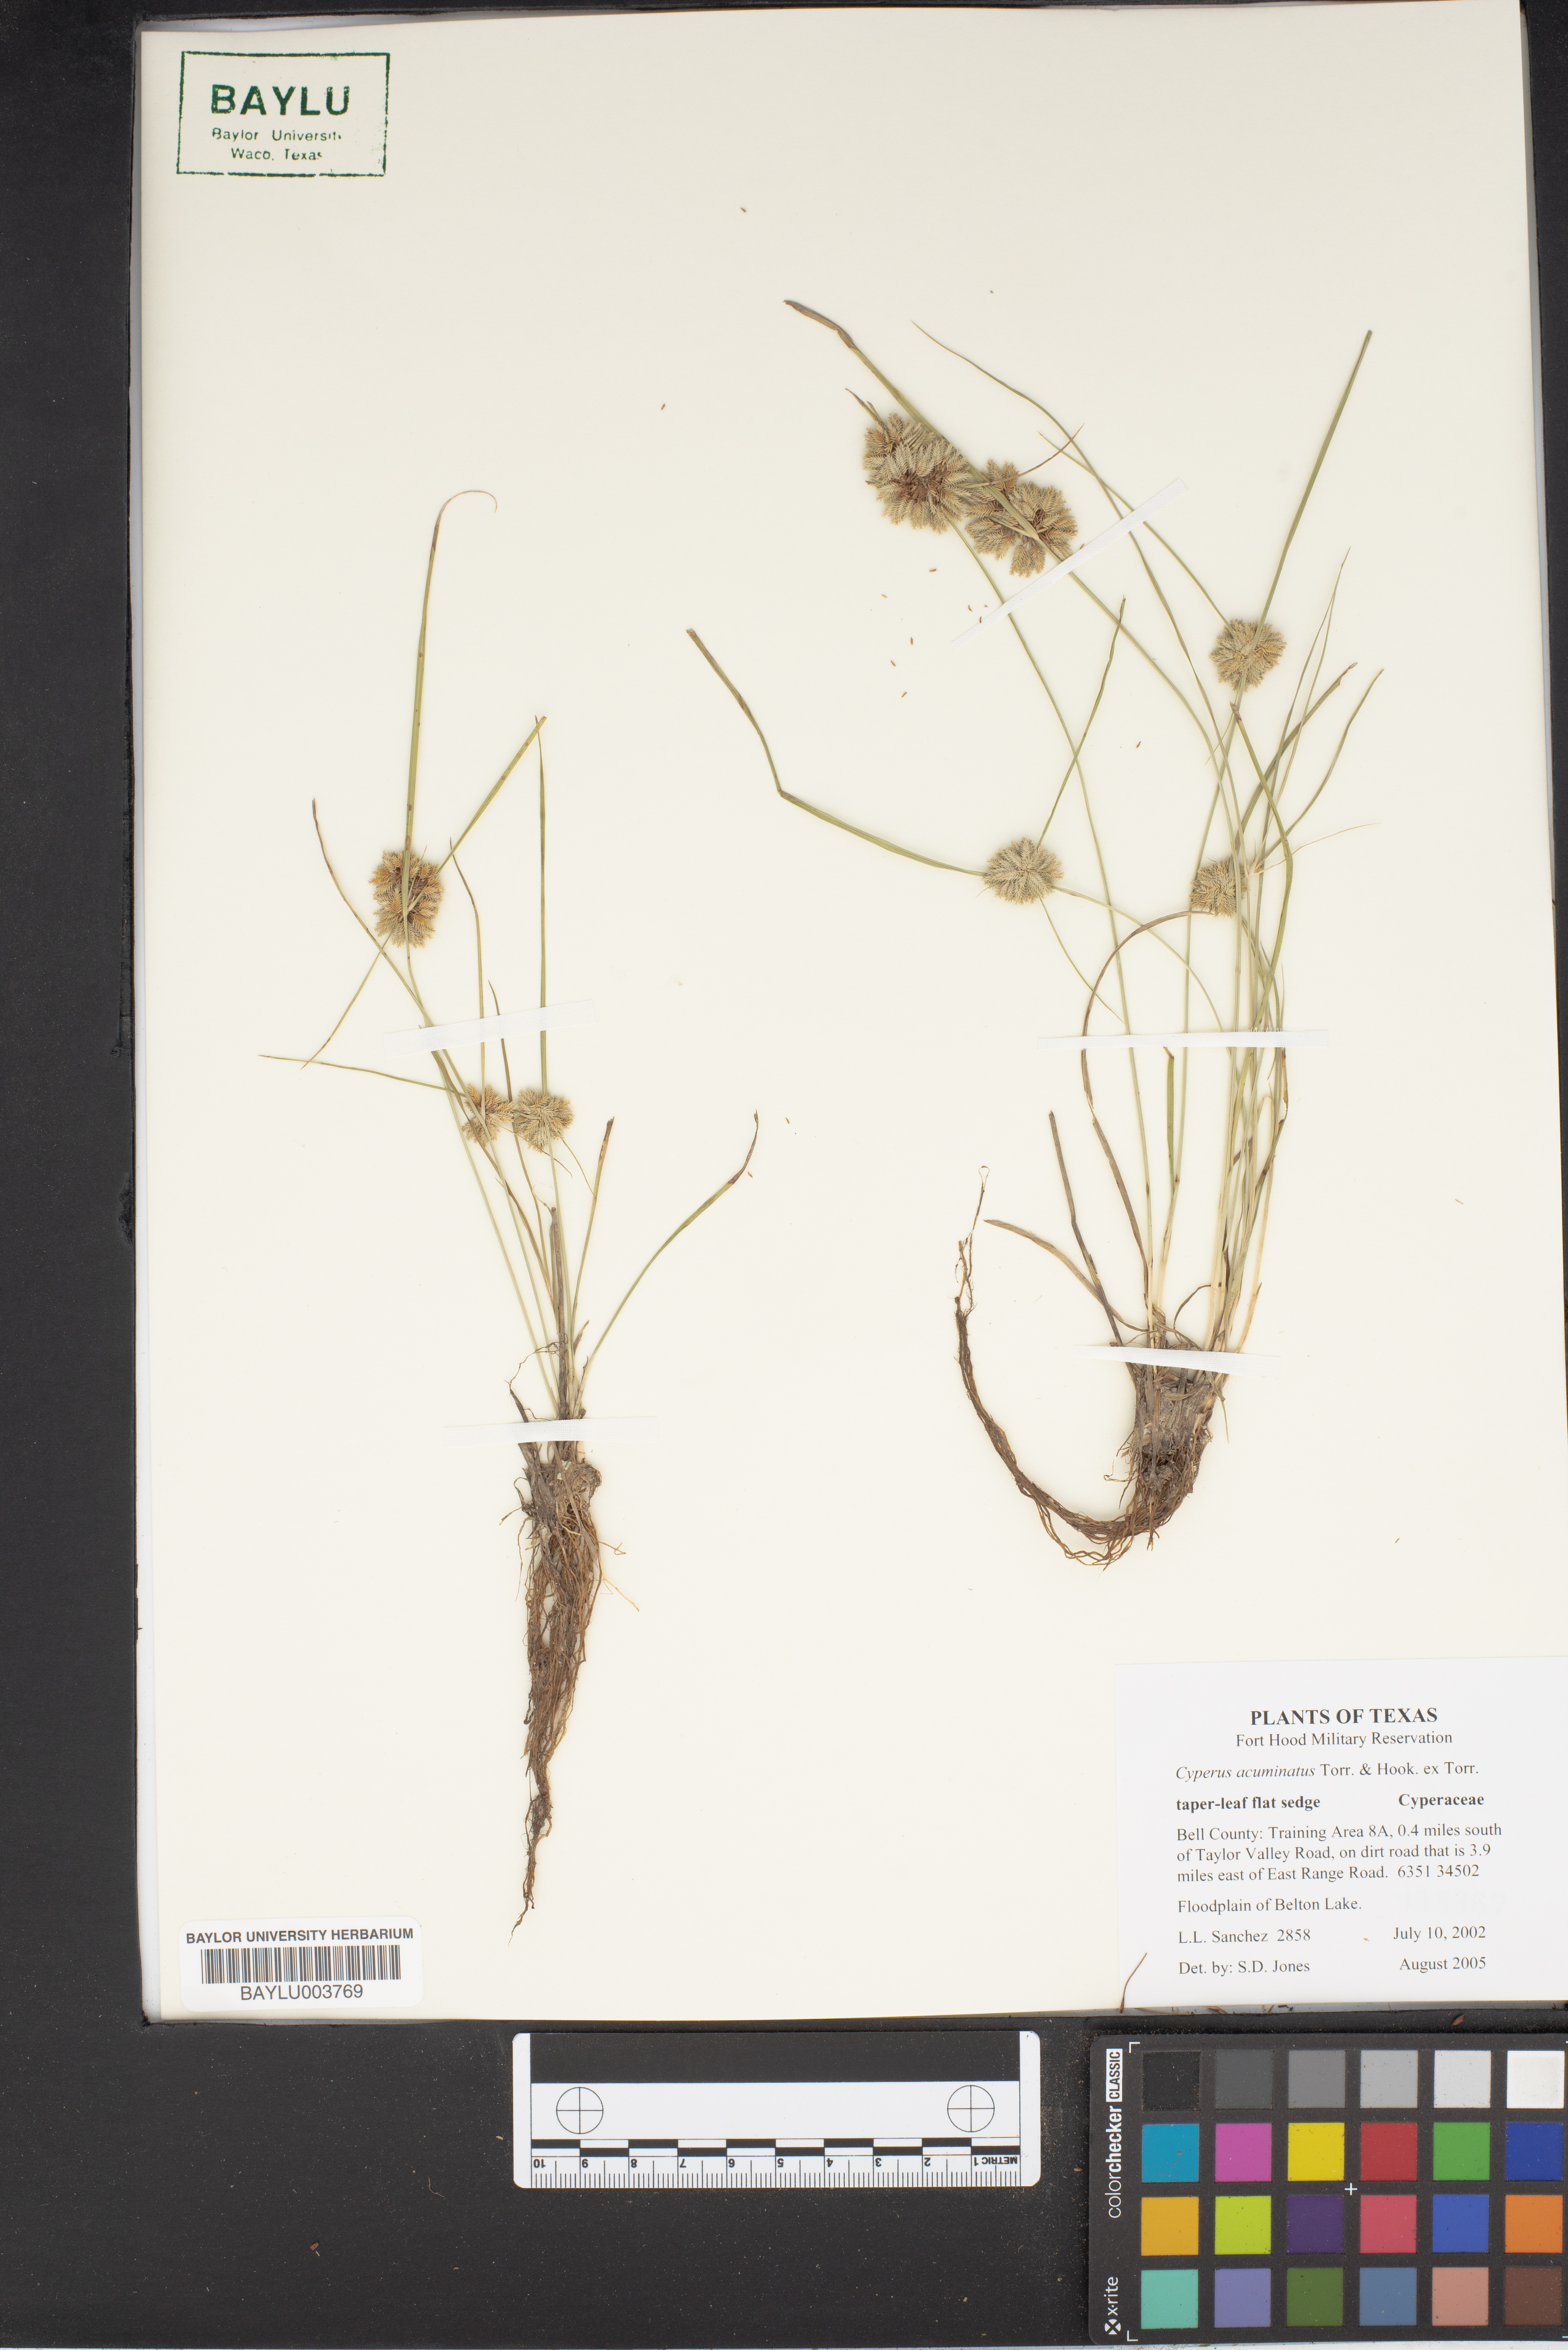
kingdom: Plantae
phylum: Tracheophyta
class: Liliopsida
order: Poales
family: Cyperaceae
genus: Cyperus
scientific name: Cyperus acuminatus
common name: Short-pointed cyperus
